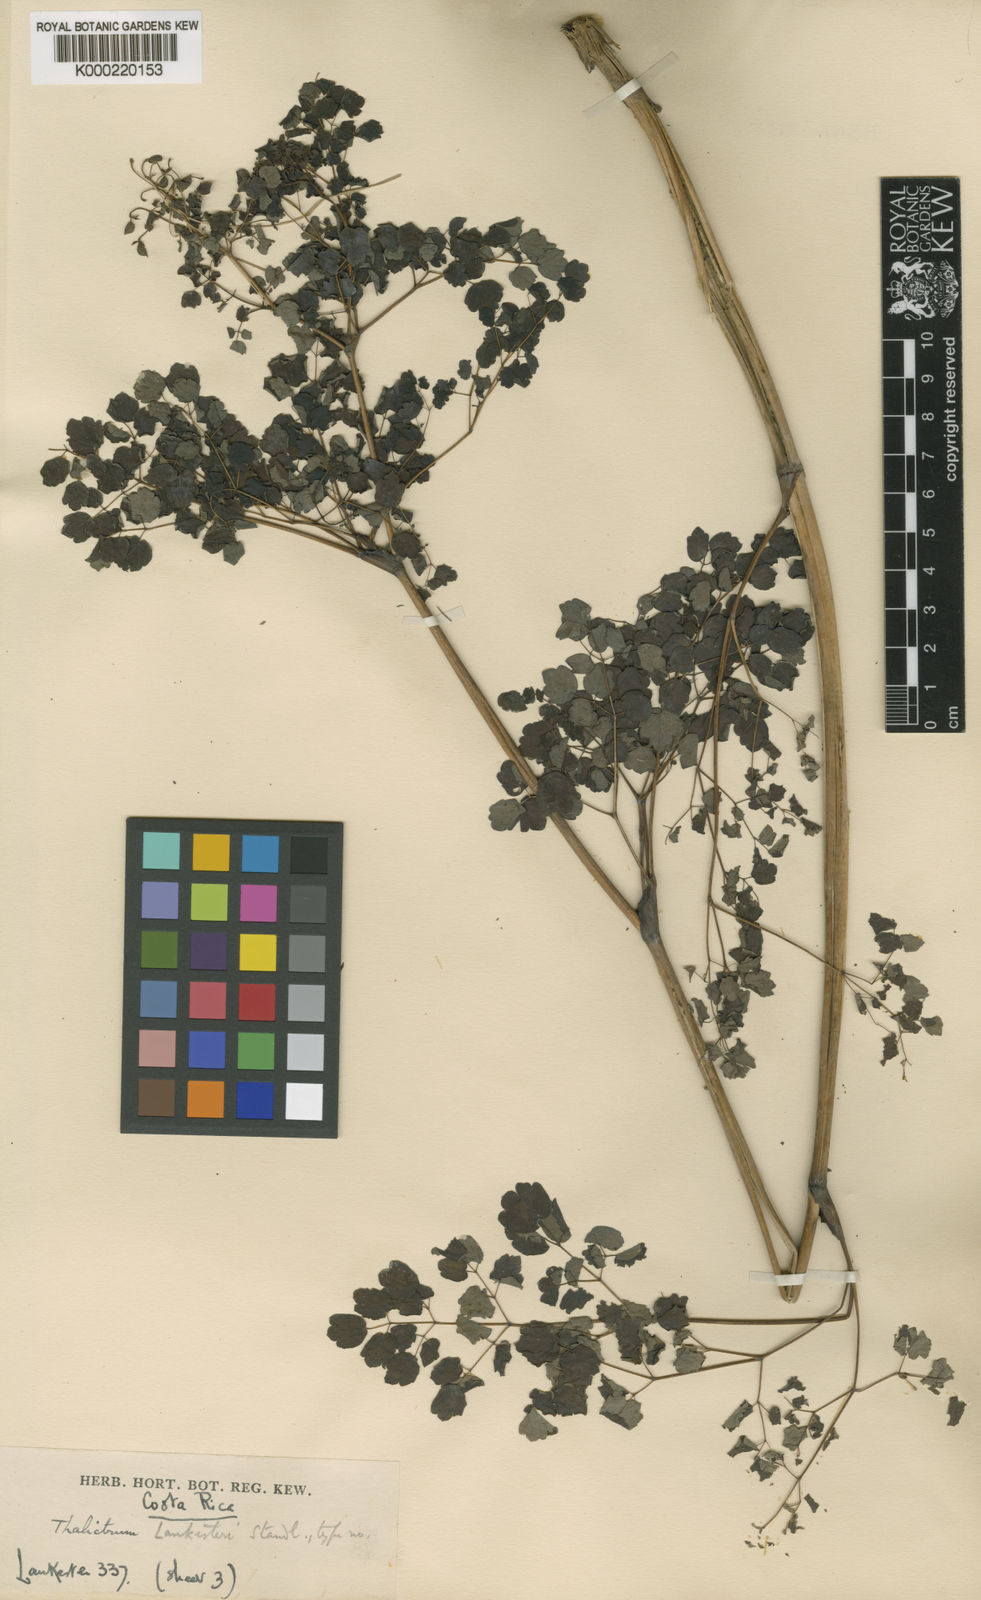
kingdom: Plantae
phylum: Tracheophyta
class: Magnoliopsida
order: Ranunculales
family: Ranunculaceae
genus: Thalictrum
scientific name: Thalictrum lankesteri
